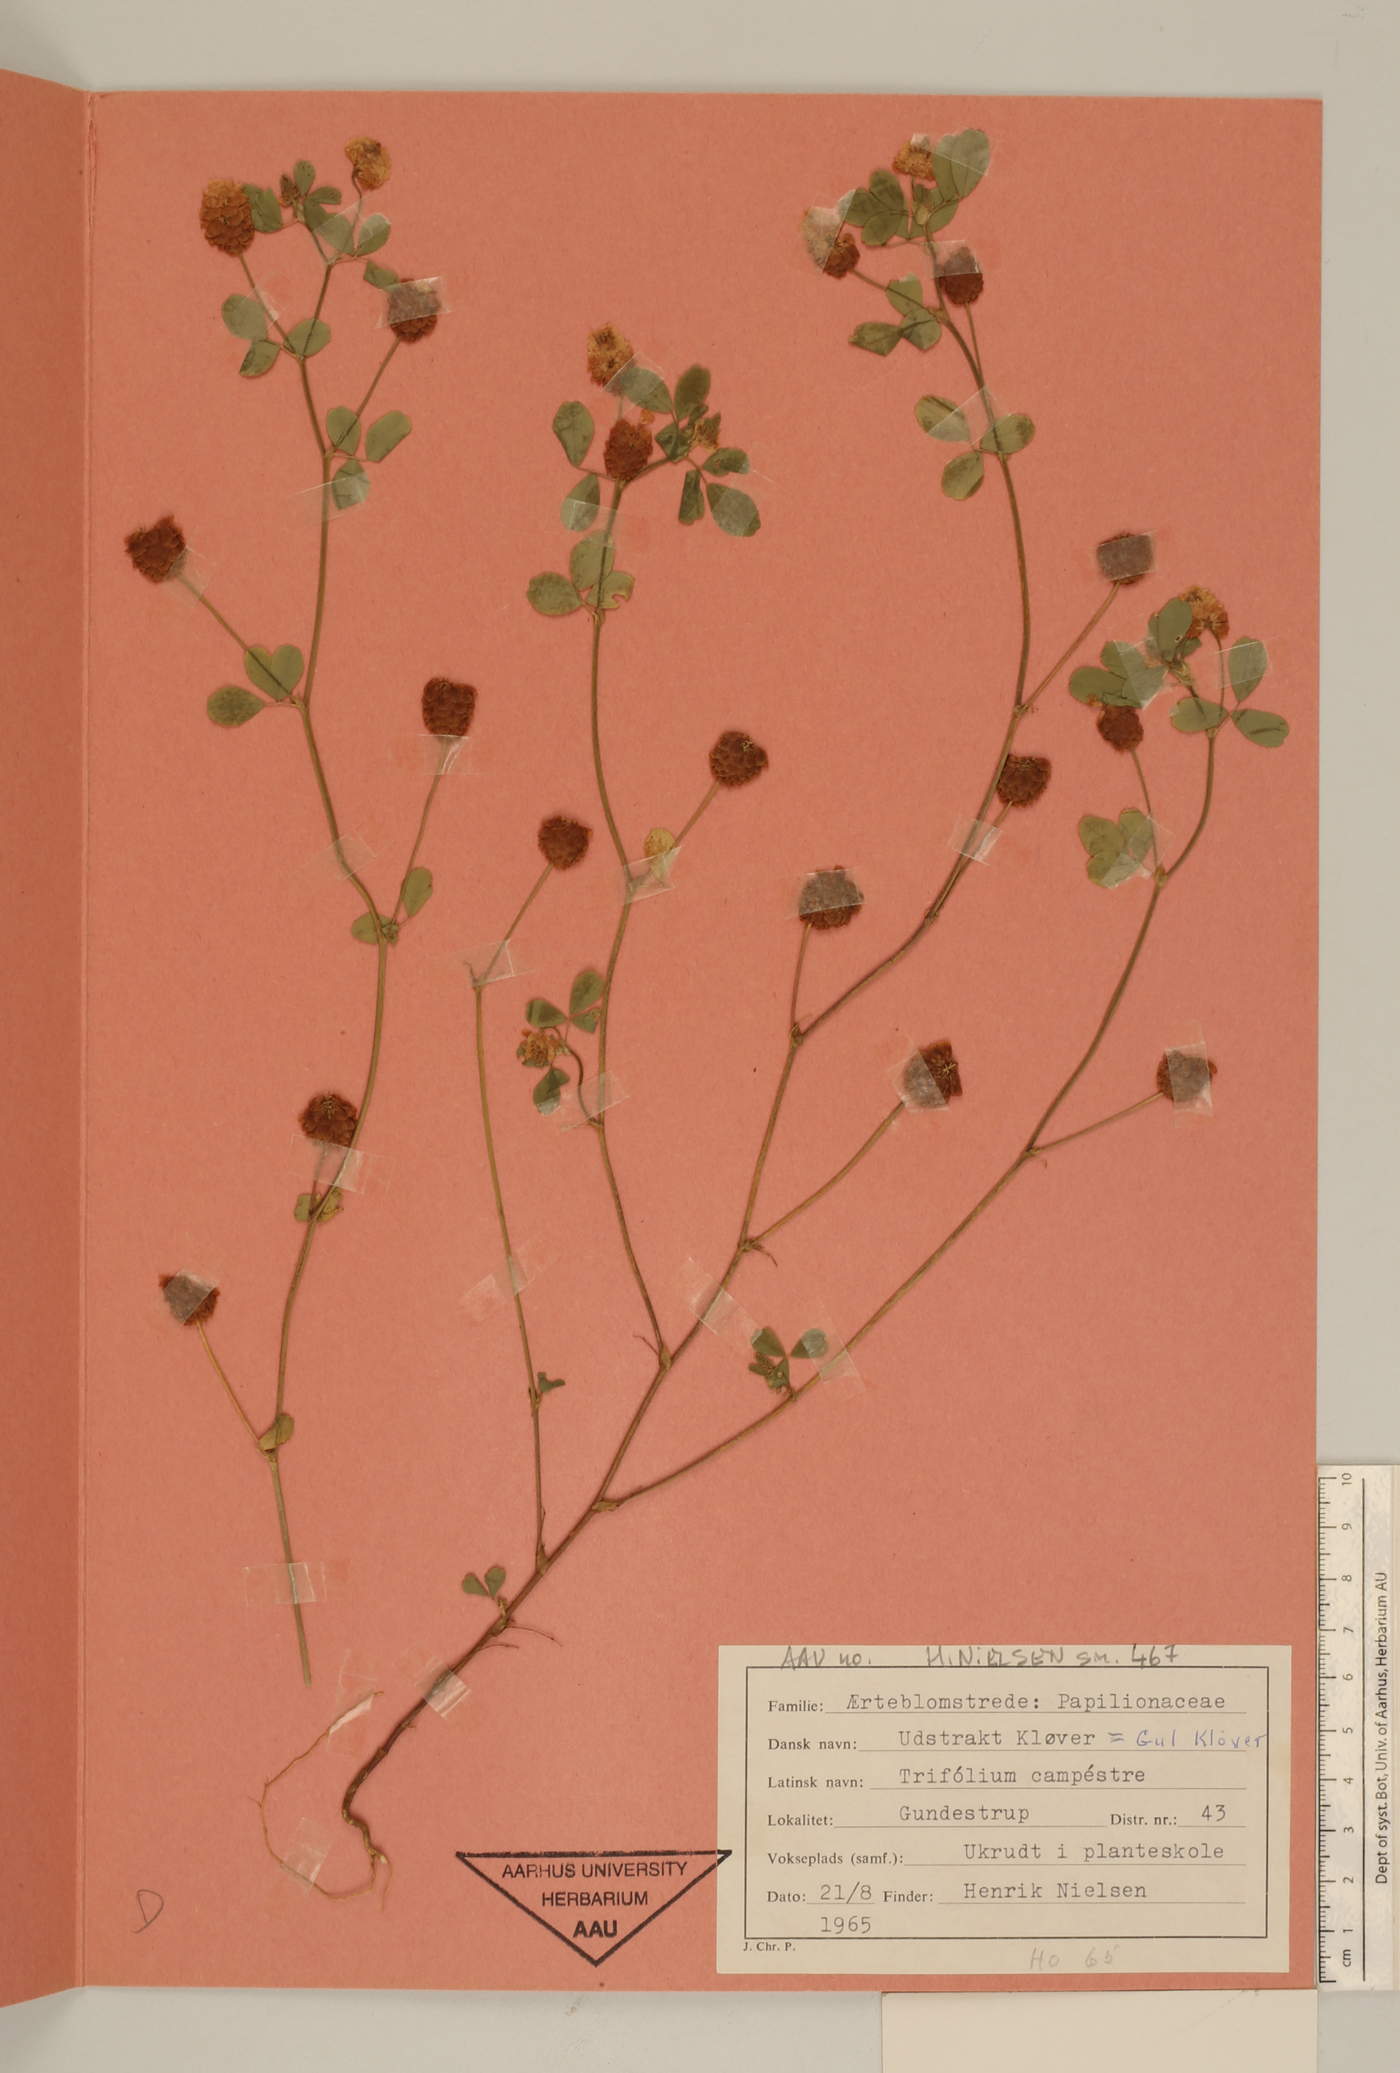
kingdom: Plantae
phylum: Tracheophyta
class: Magnoliopsida
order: Fabales
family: Fabaceae
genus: Trifolium
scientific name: Trifolium campestre
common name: Field clover
